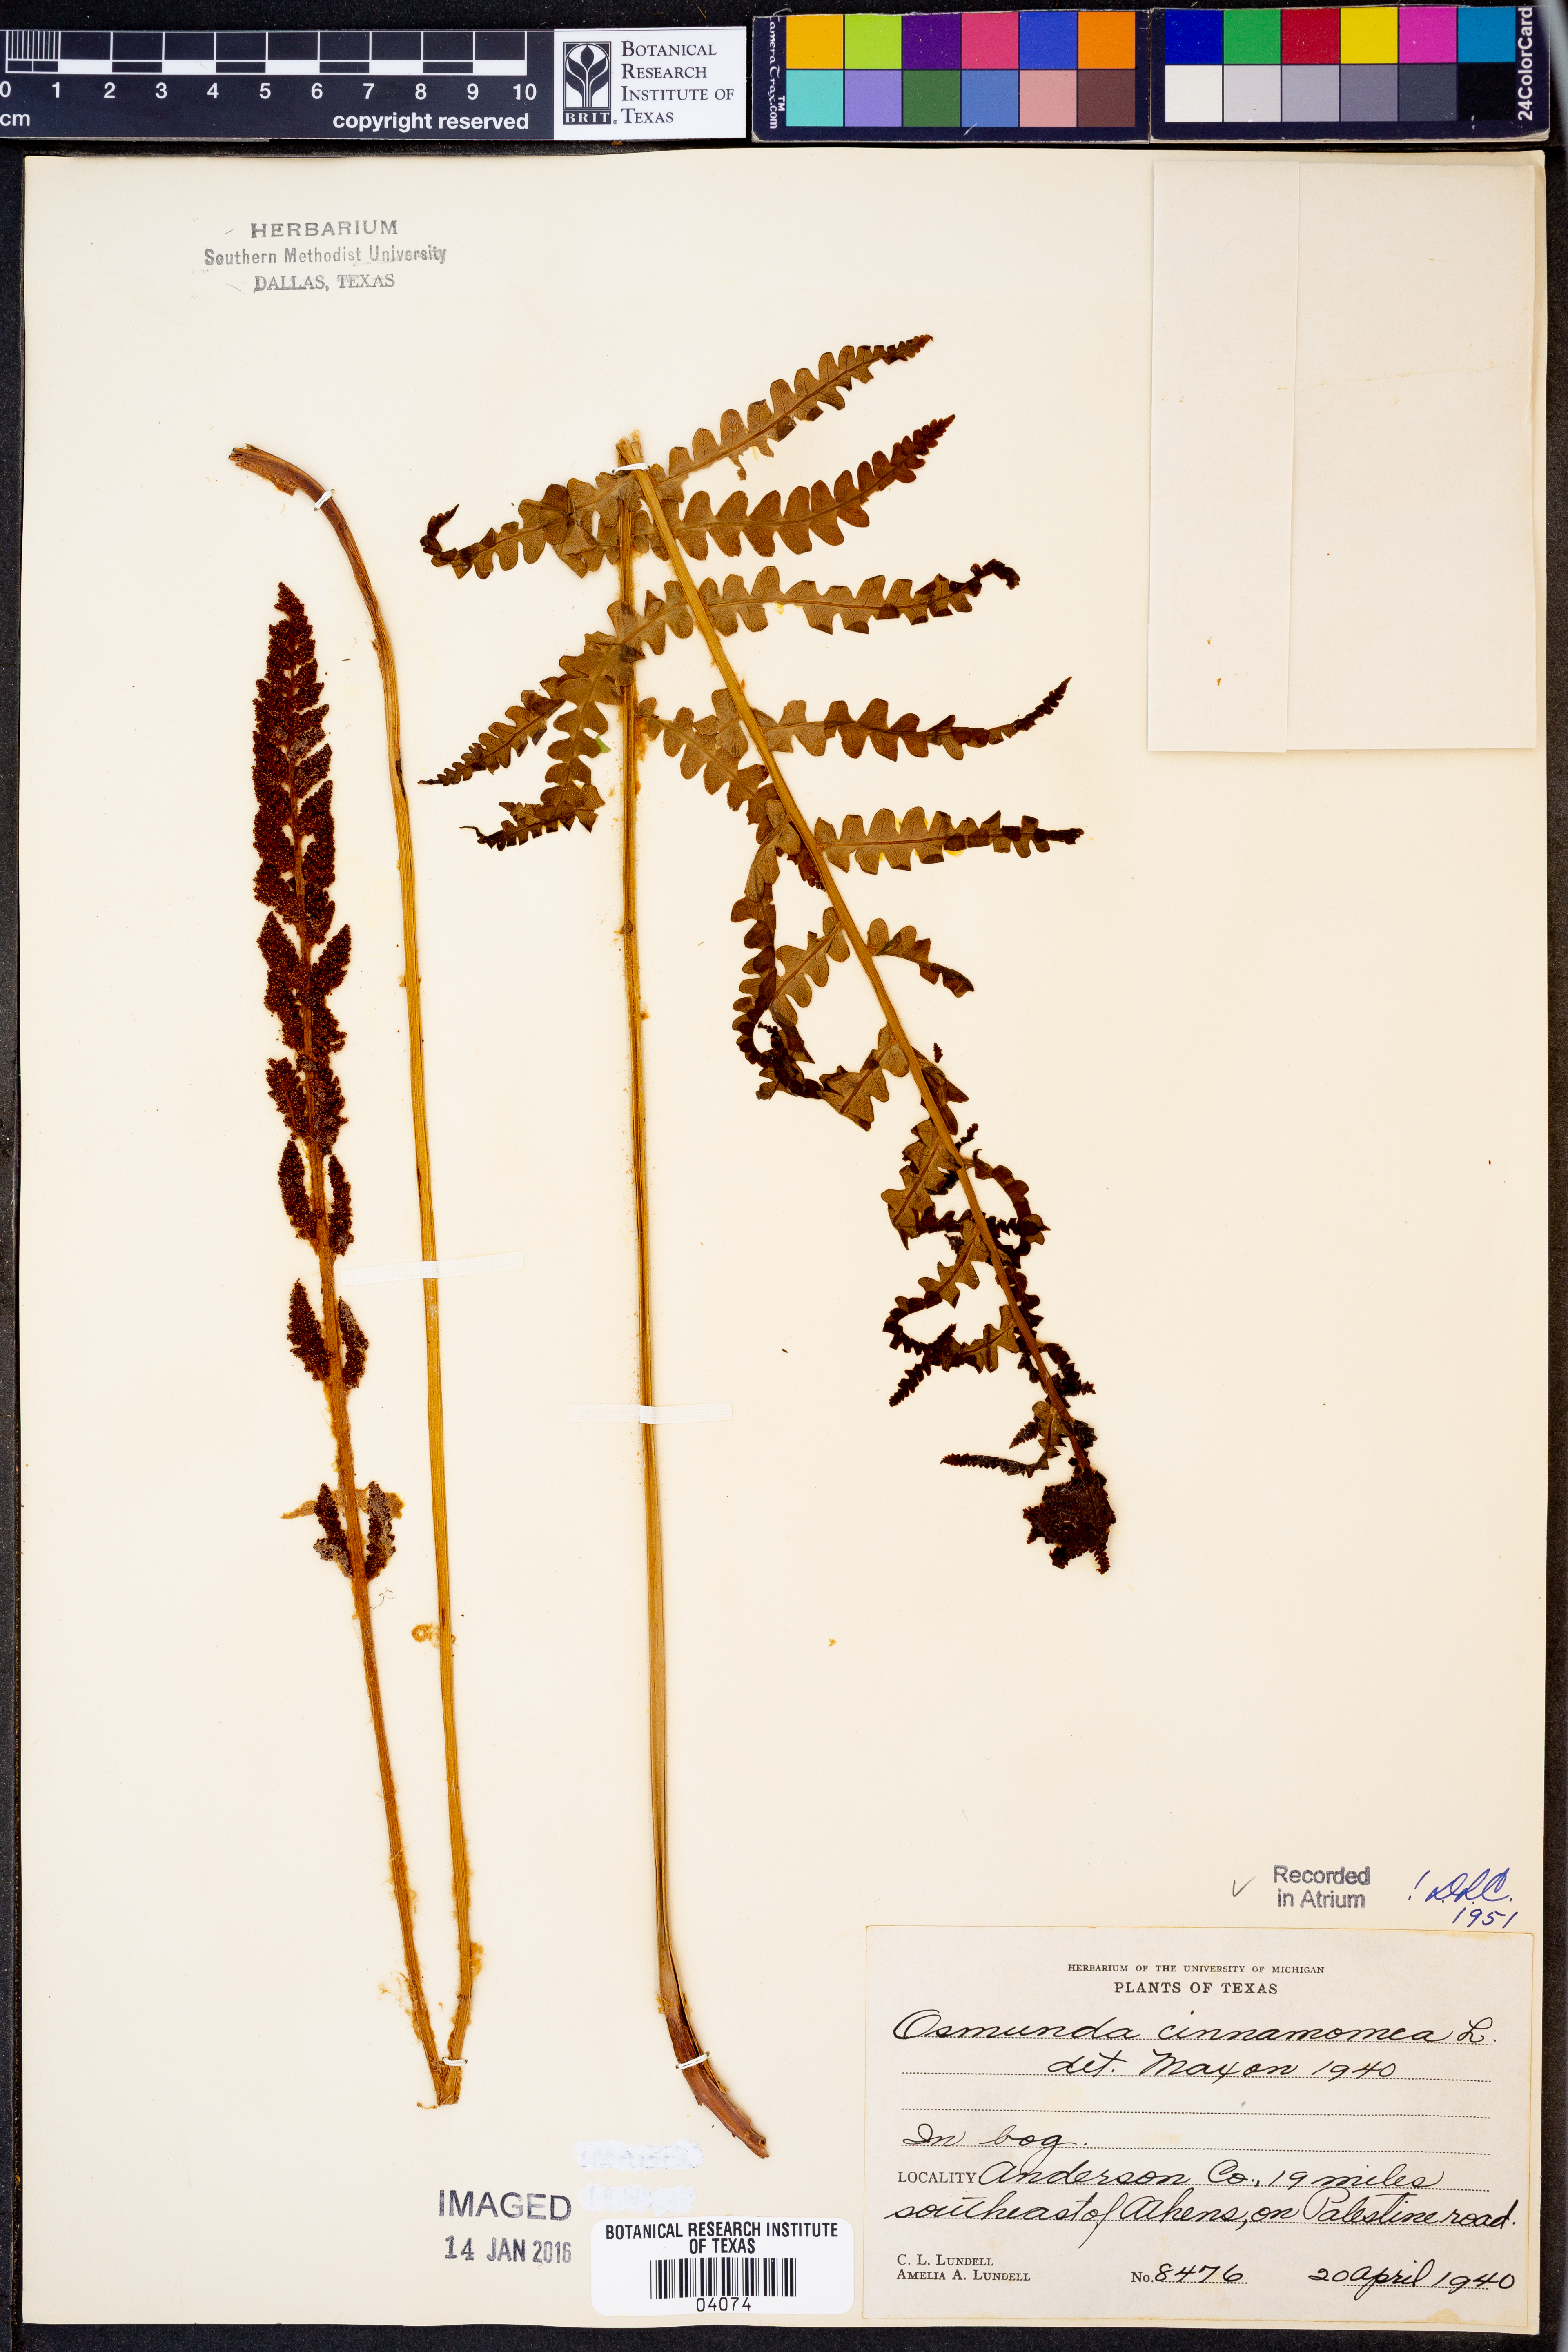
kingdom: Plantae
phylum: Tracheophyta
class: Polypodiopsida
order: Osmundales
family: Osmundaceae
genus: Osmundastrum
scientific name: Osmundastrum cinnamomeum
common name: Cinnamon fern
